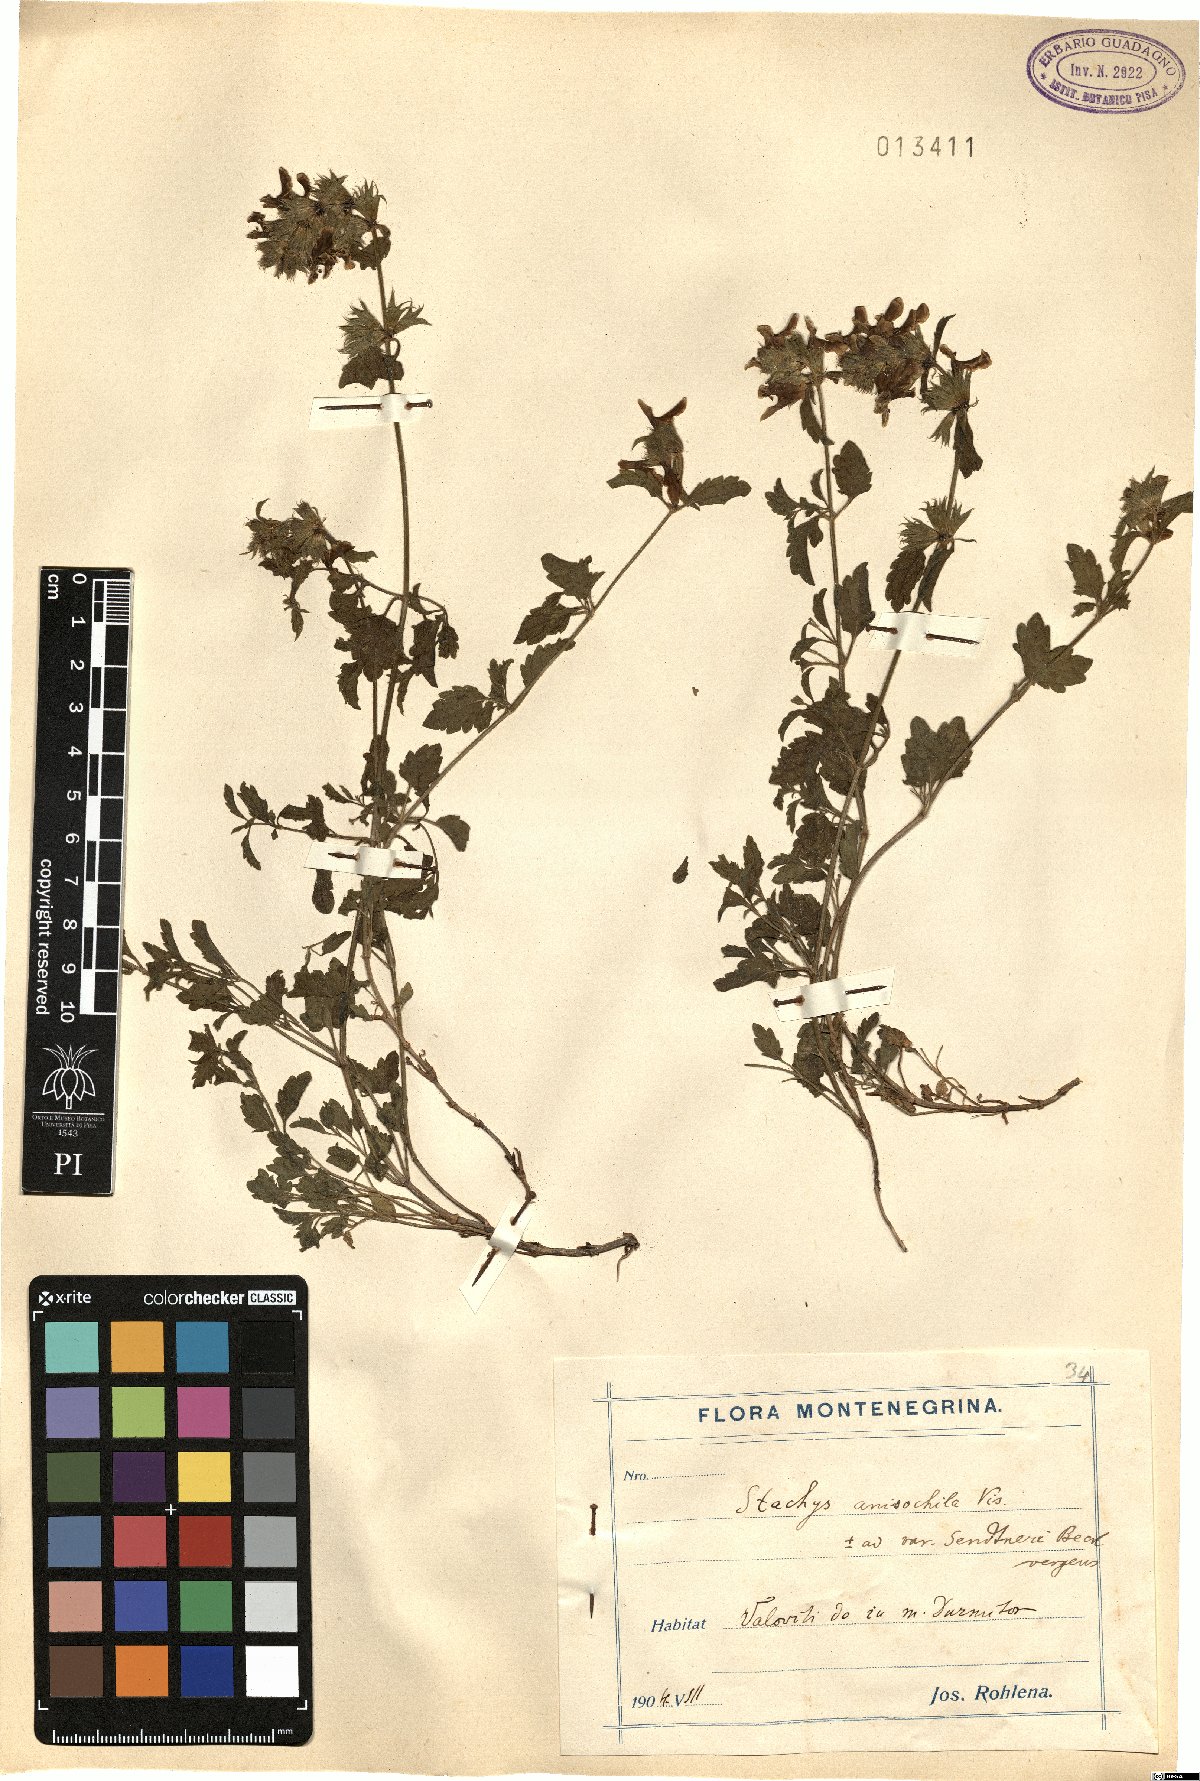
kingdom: Plantae
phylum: Tracheophyta
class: Magnoliopsida
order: Lamiales
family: Lamiaceae
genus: Stachys
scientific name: Stachys anisochila
